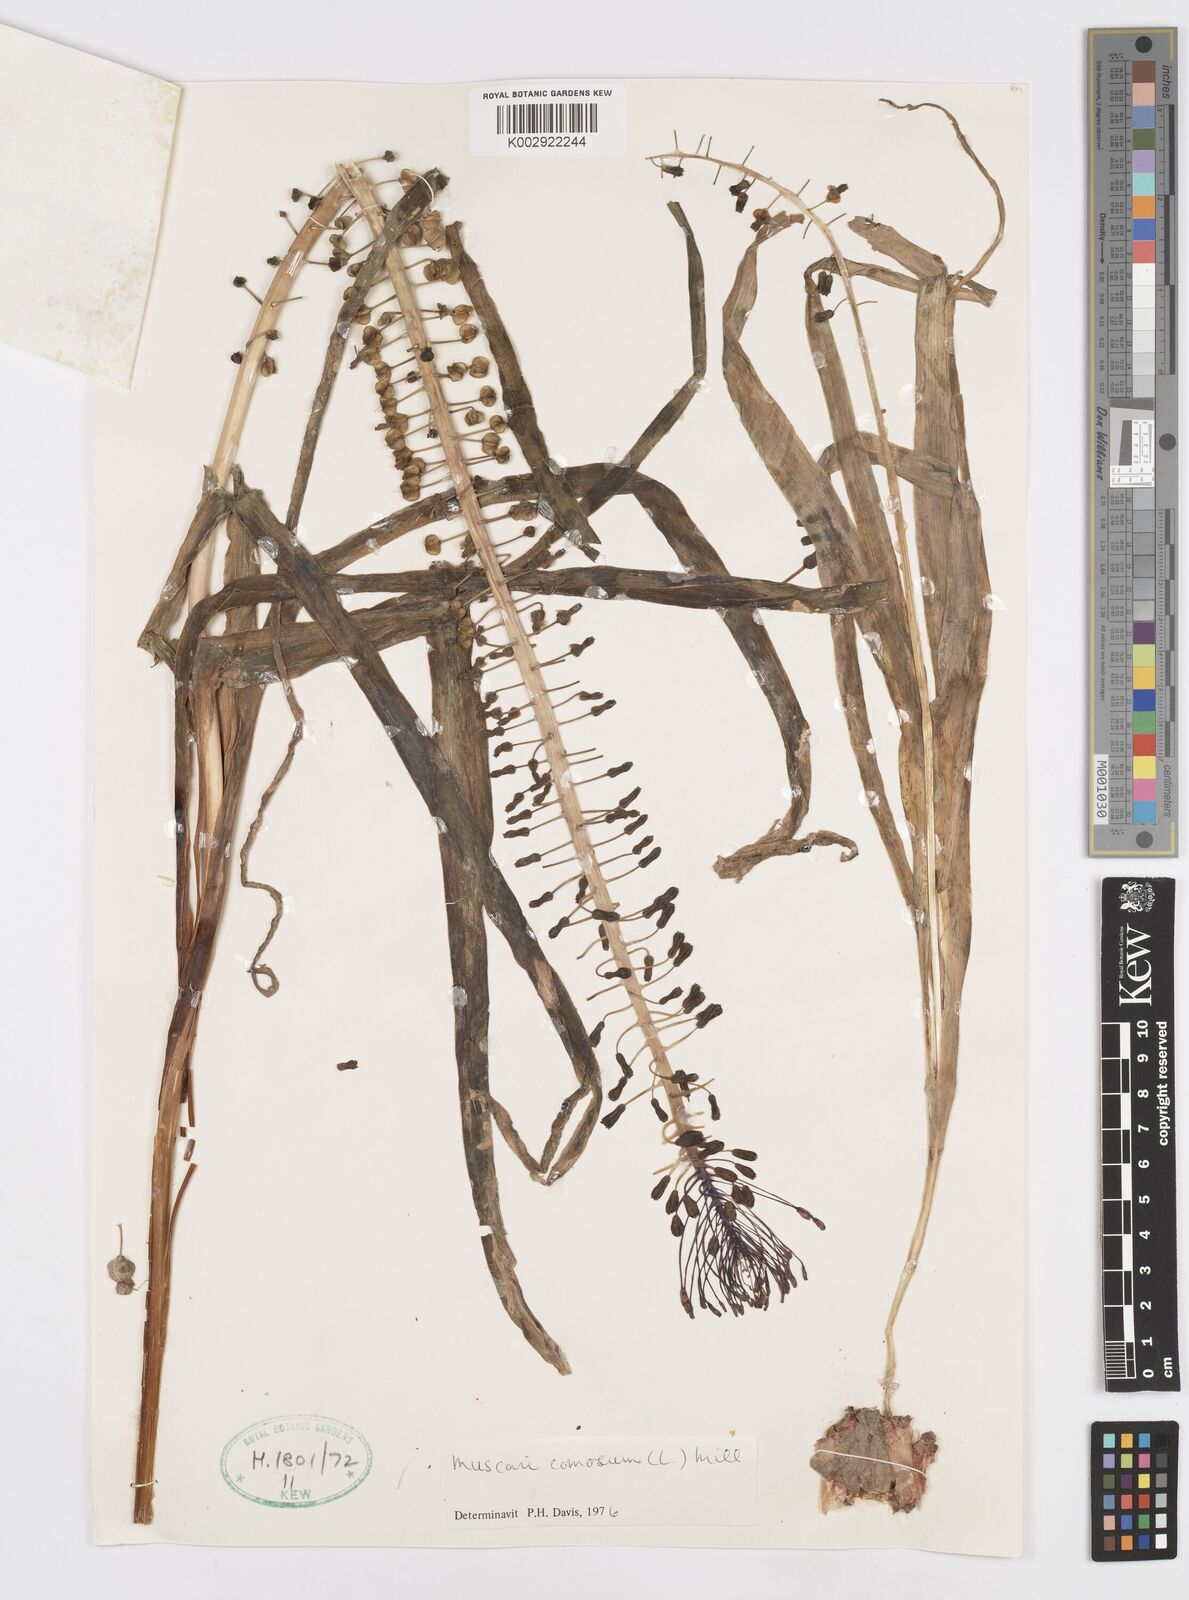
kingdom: Plantae
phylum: Tracheophyta
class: Liliopsida
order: Asparagales
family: Asparagaceae
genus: Muscari
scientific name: Muscari comosum
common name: Tassel hyacinth
